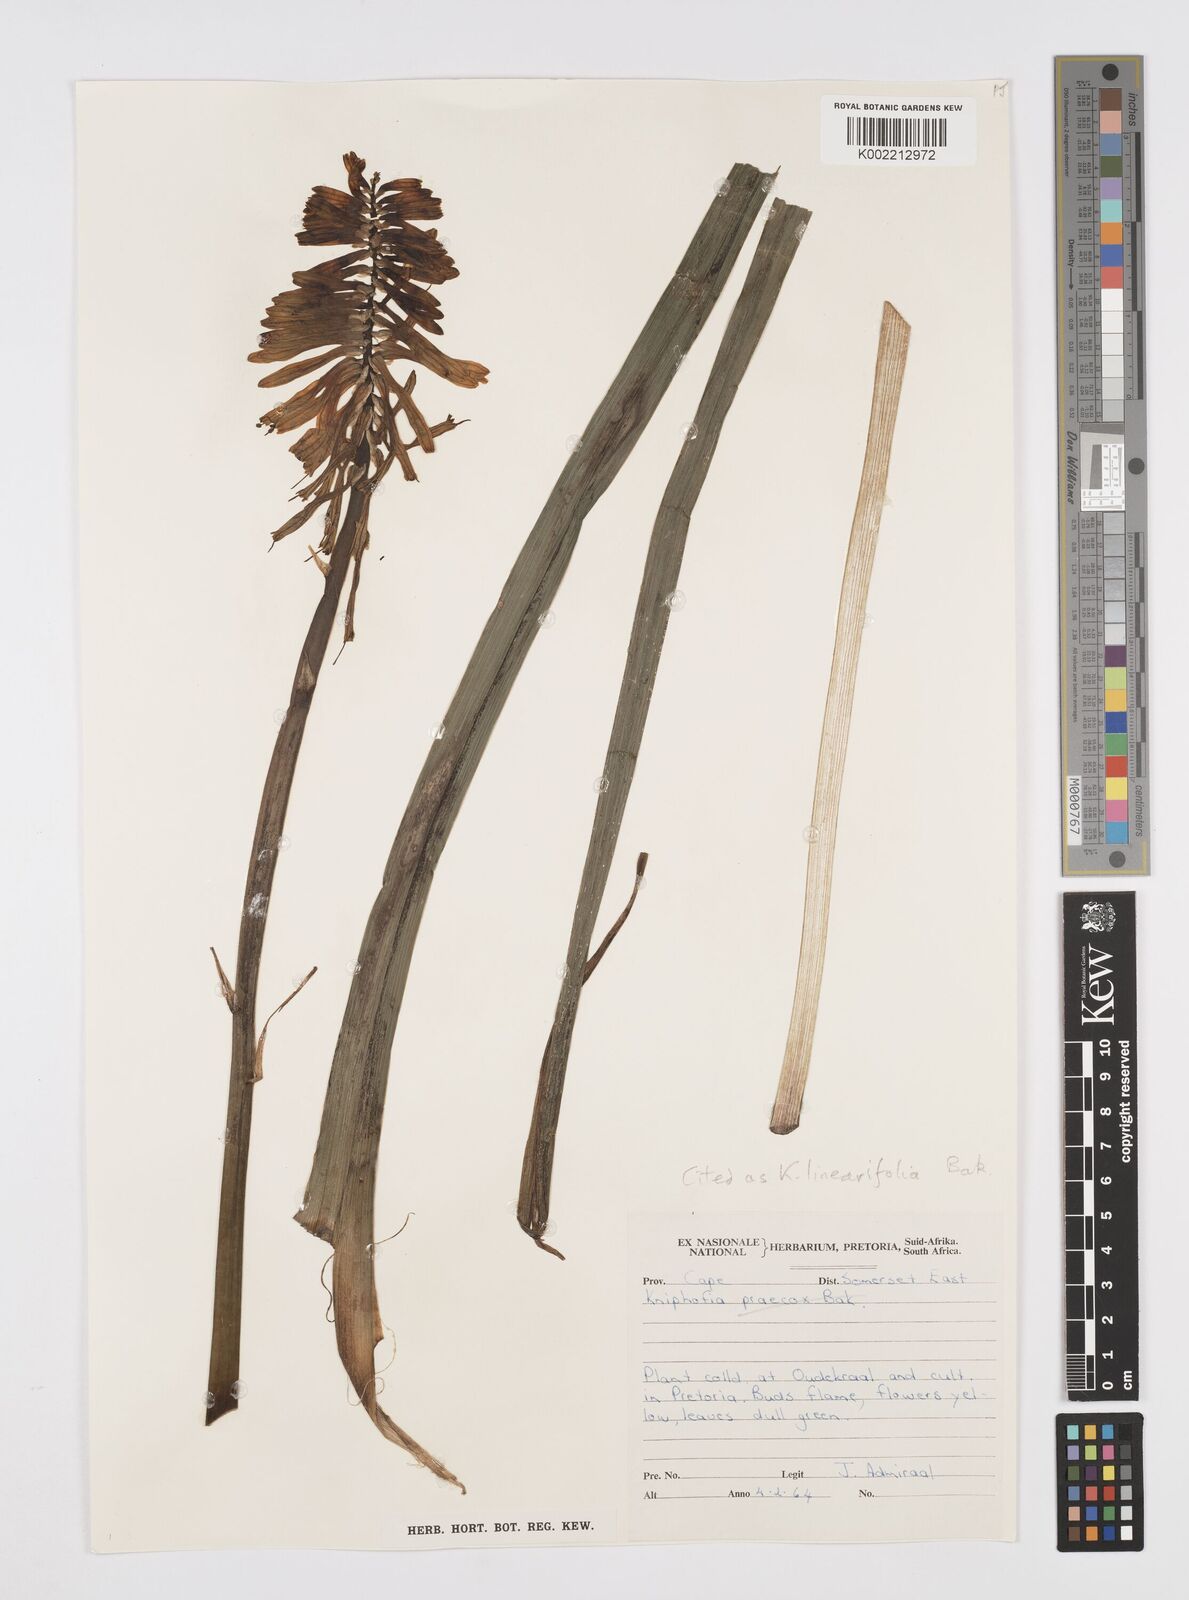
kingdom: Plantae
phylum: Tracheophyta
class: Liliopsida
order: Asparagales
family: Asphodelaceae
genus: Kniphofia
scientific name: Kniphofia linearifolia
